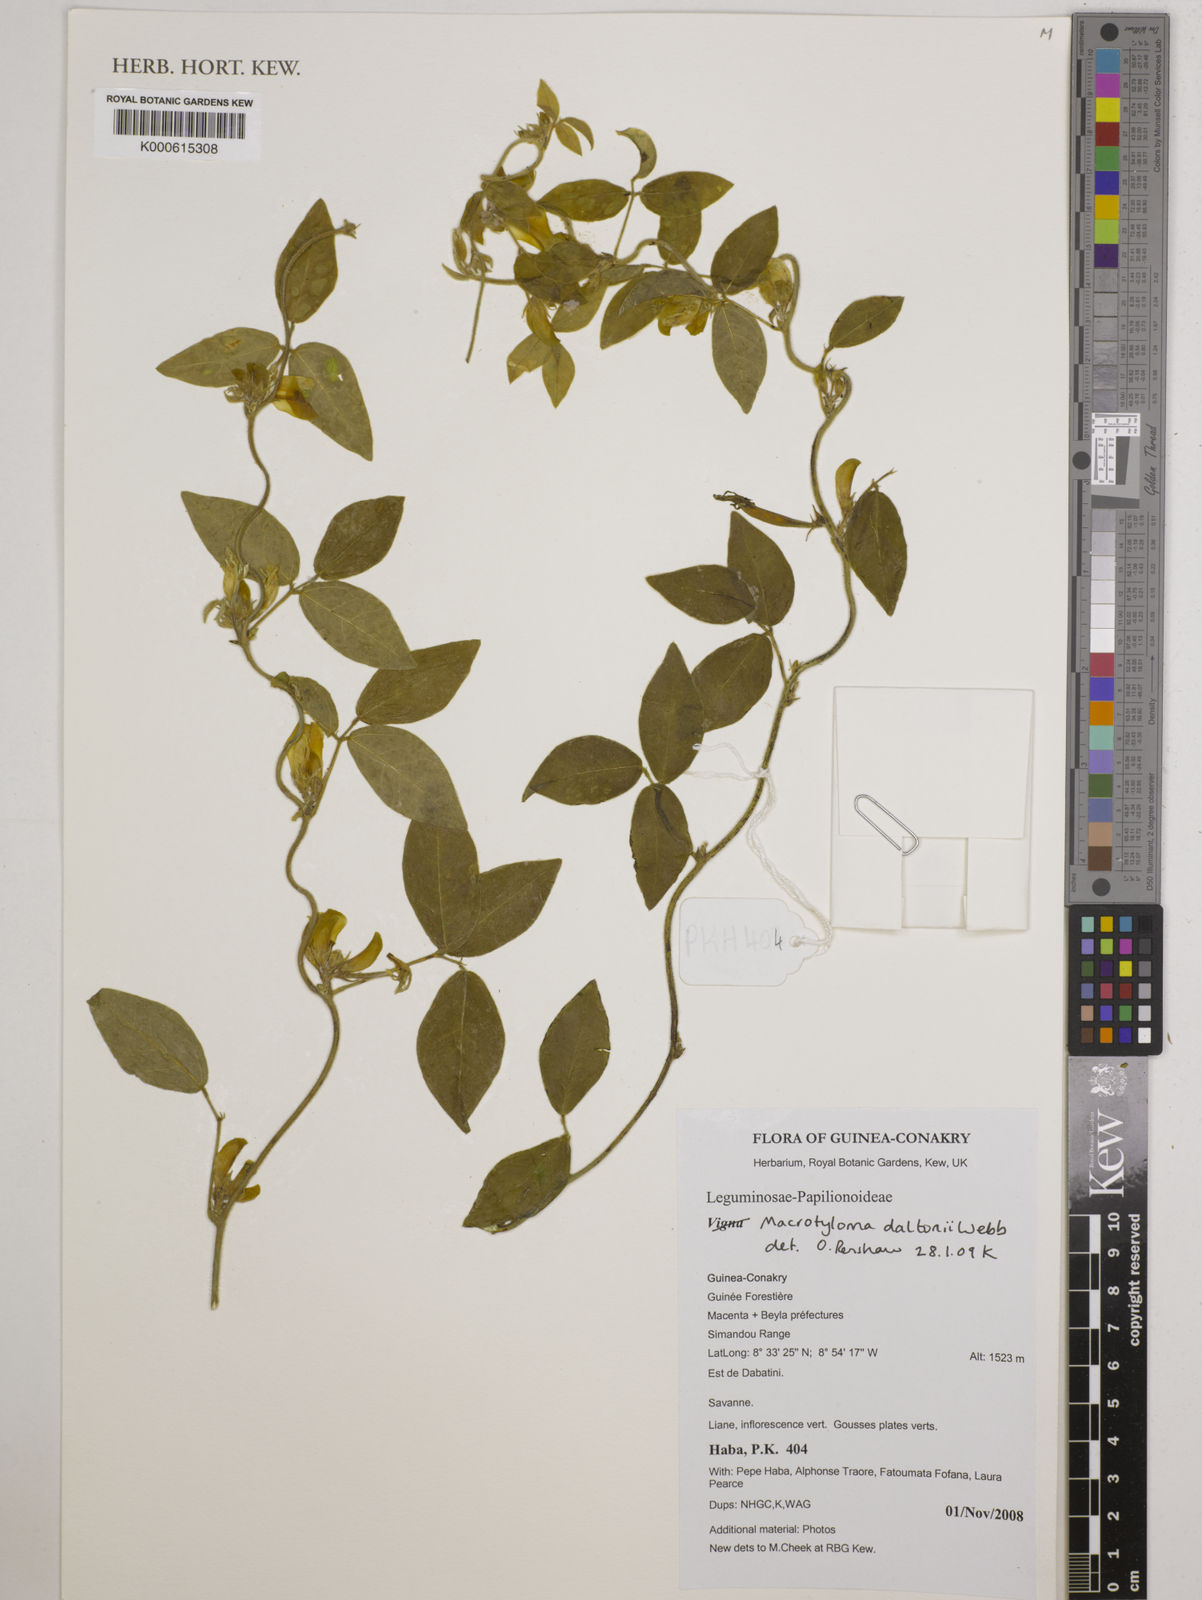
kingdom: Plantae
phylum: Tracheophyta
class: Magnoliopsida
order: Fabales
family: Fabaceae
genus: Macrotyloma
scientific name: Macrotyloma daltonii
